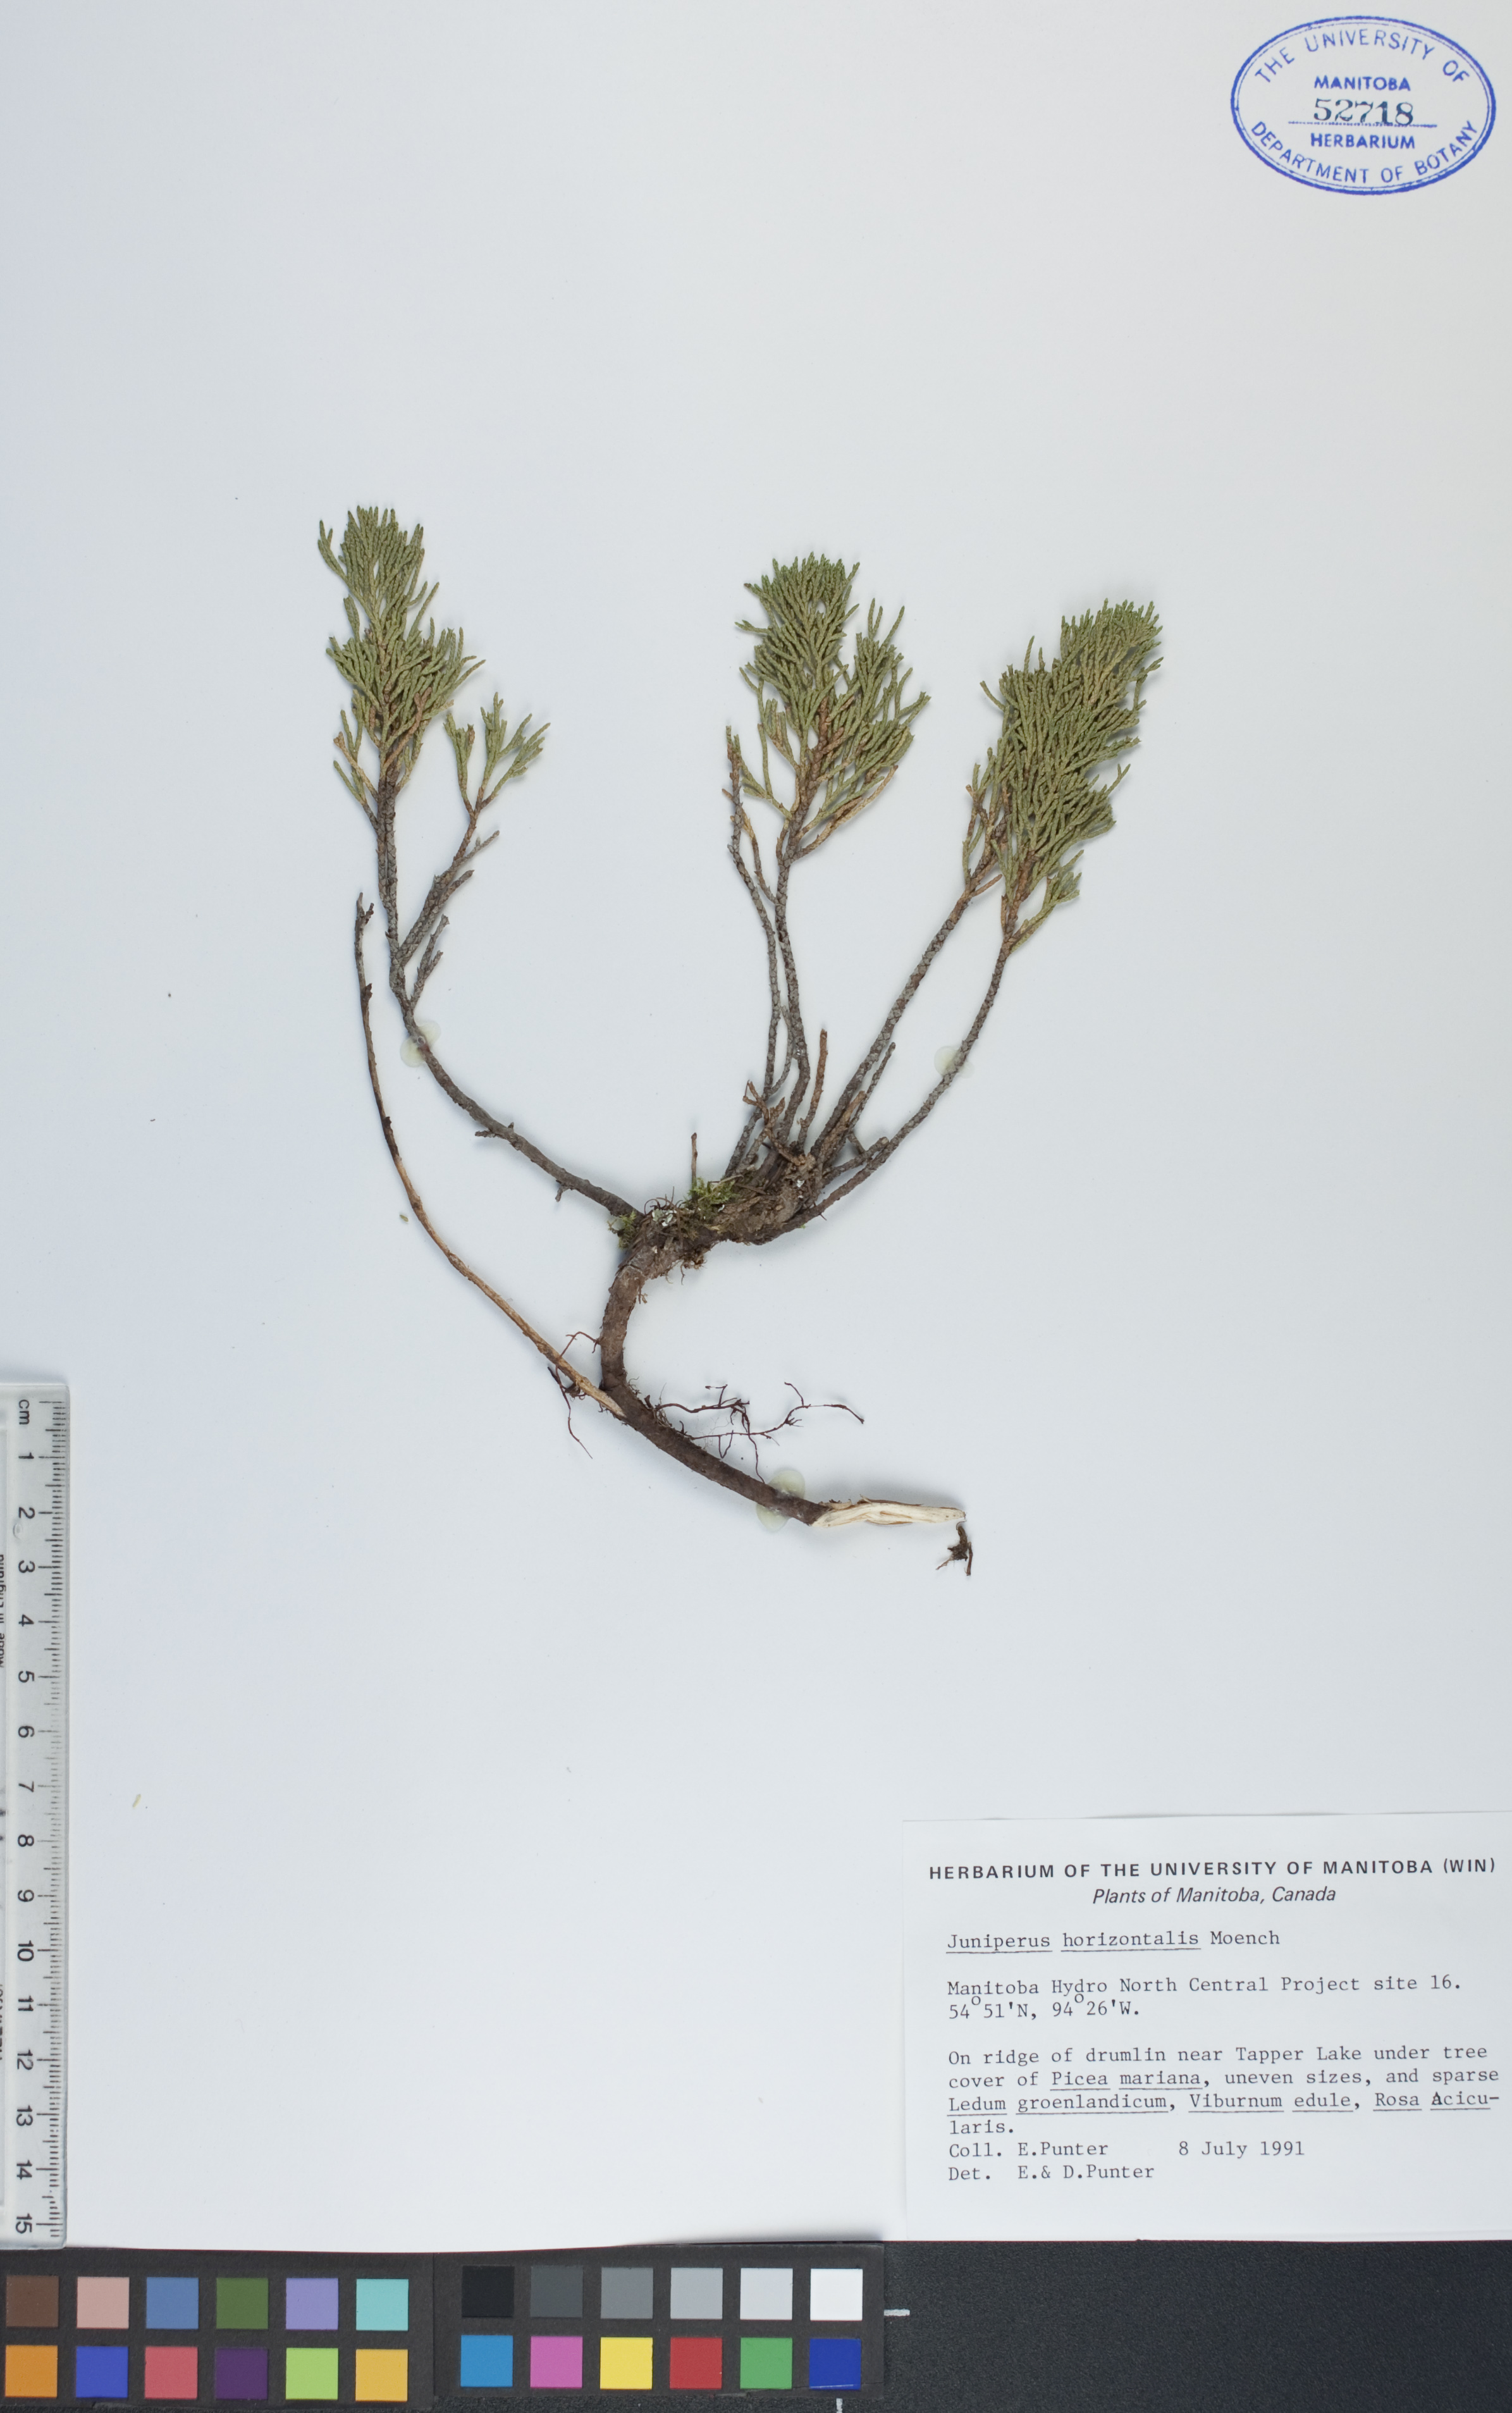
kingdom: Plantae
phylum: Tracheophyta
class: Pinopsida
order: Pinales
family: Cupressaceae
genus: Juniperus
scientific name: Juniperus horizontalis
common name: Creeping juniper
